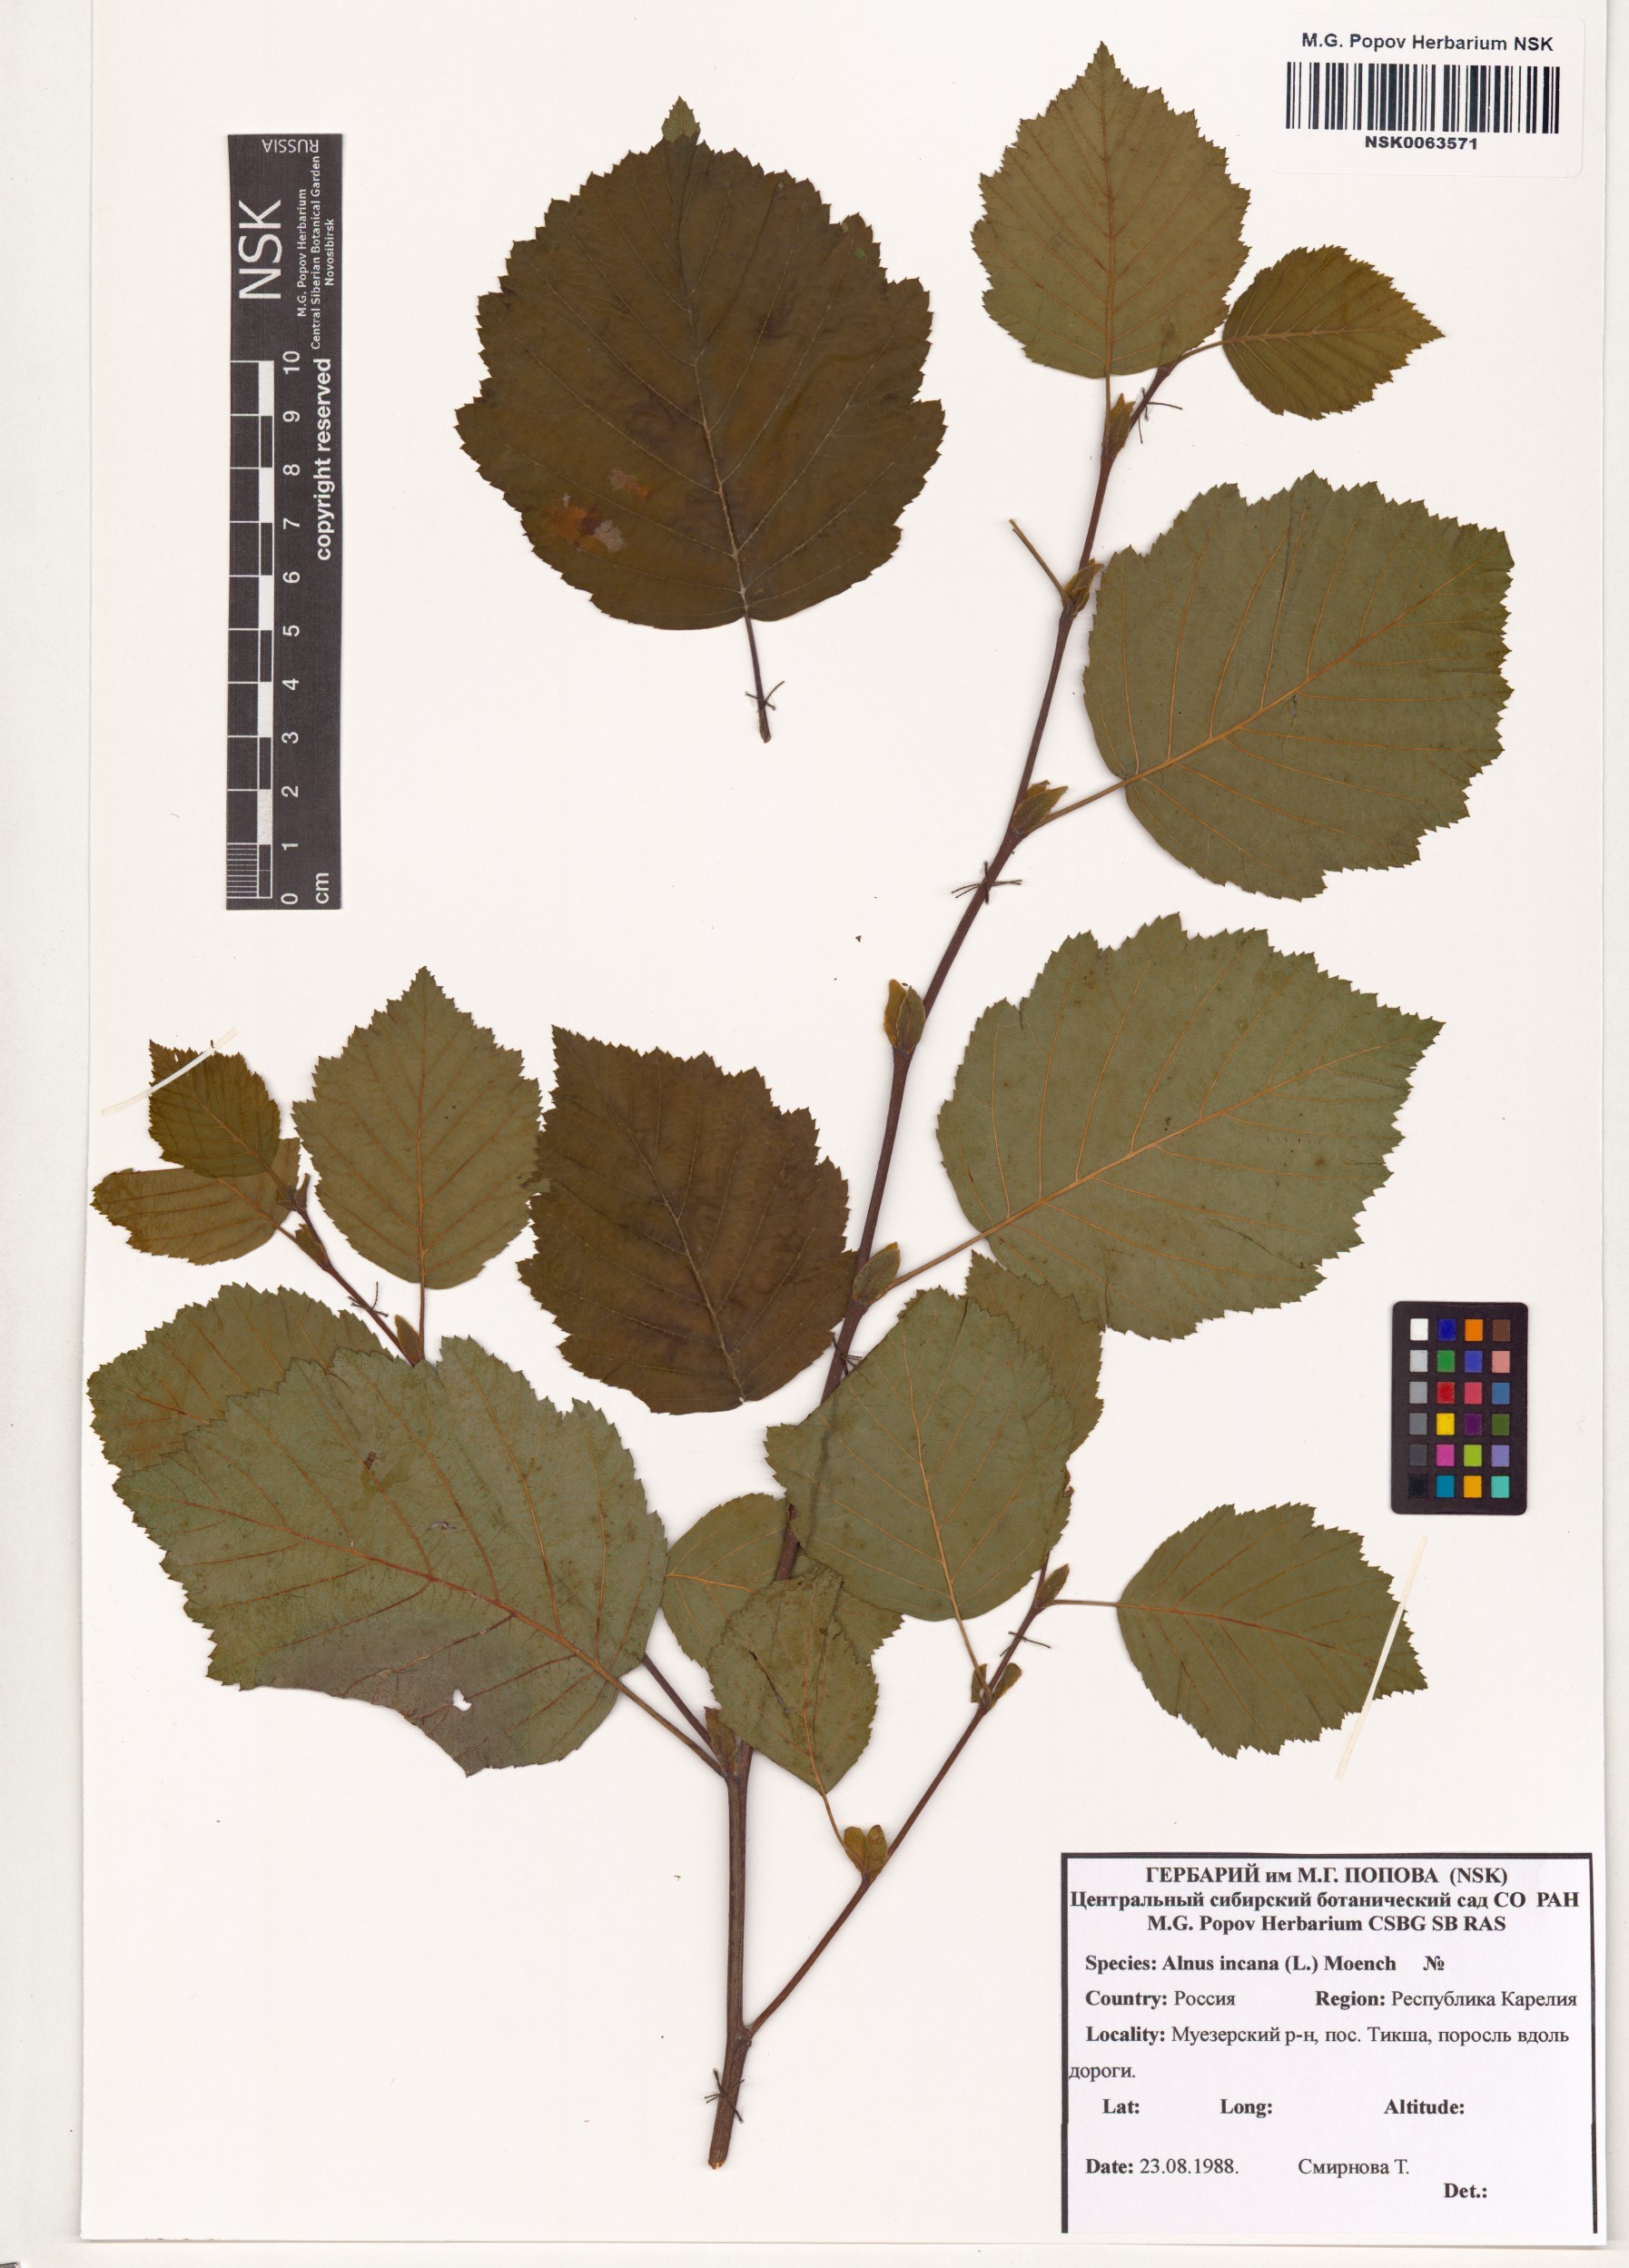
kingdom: Plantae
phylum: Tracheophyta
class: Magnoliopsida
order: Fagales
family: Betulaceae
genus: Alnus
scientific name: Alnus incana
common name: Grey alder
